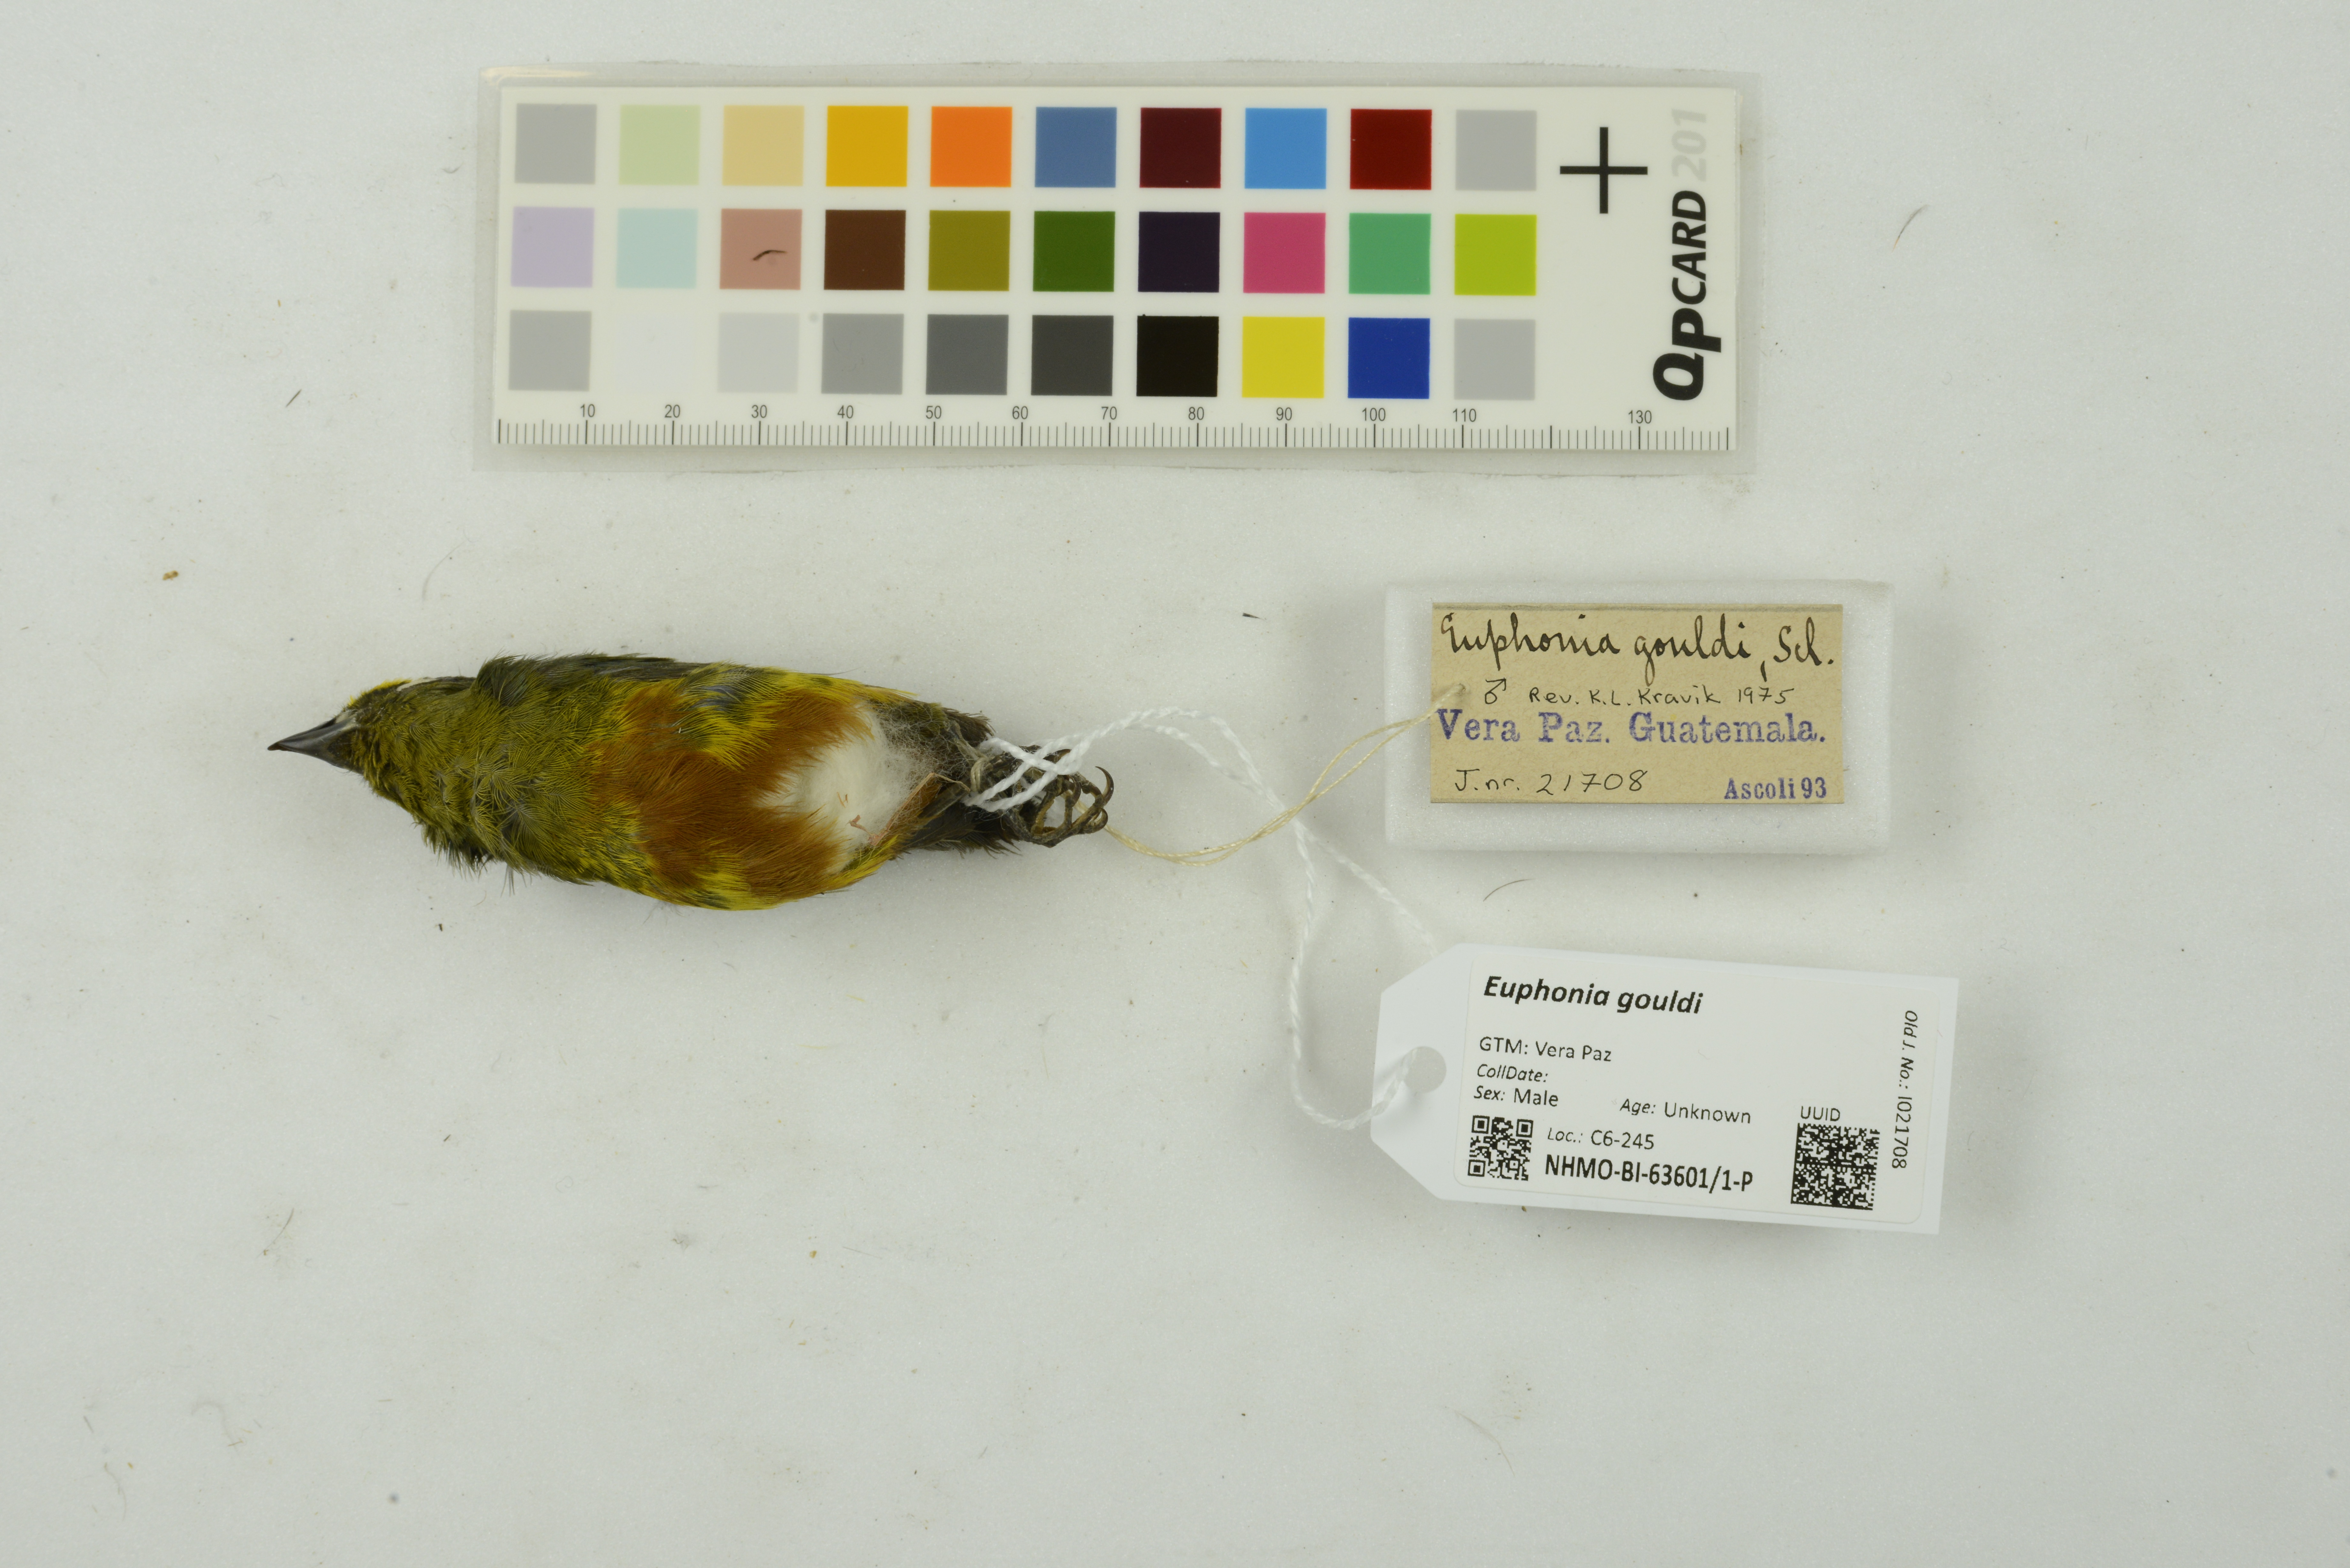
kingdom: Animalia
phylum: Chordata
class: Aves
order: Passeriformes
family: Fringillidae
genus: Euphonia
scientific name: Euphonia gouldi
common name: Olive-backed euphonia
